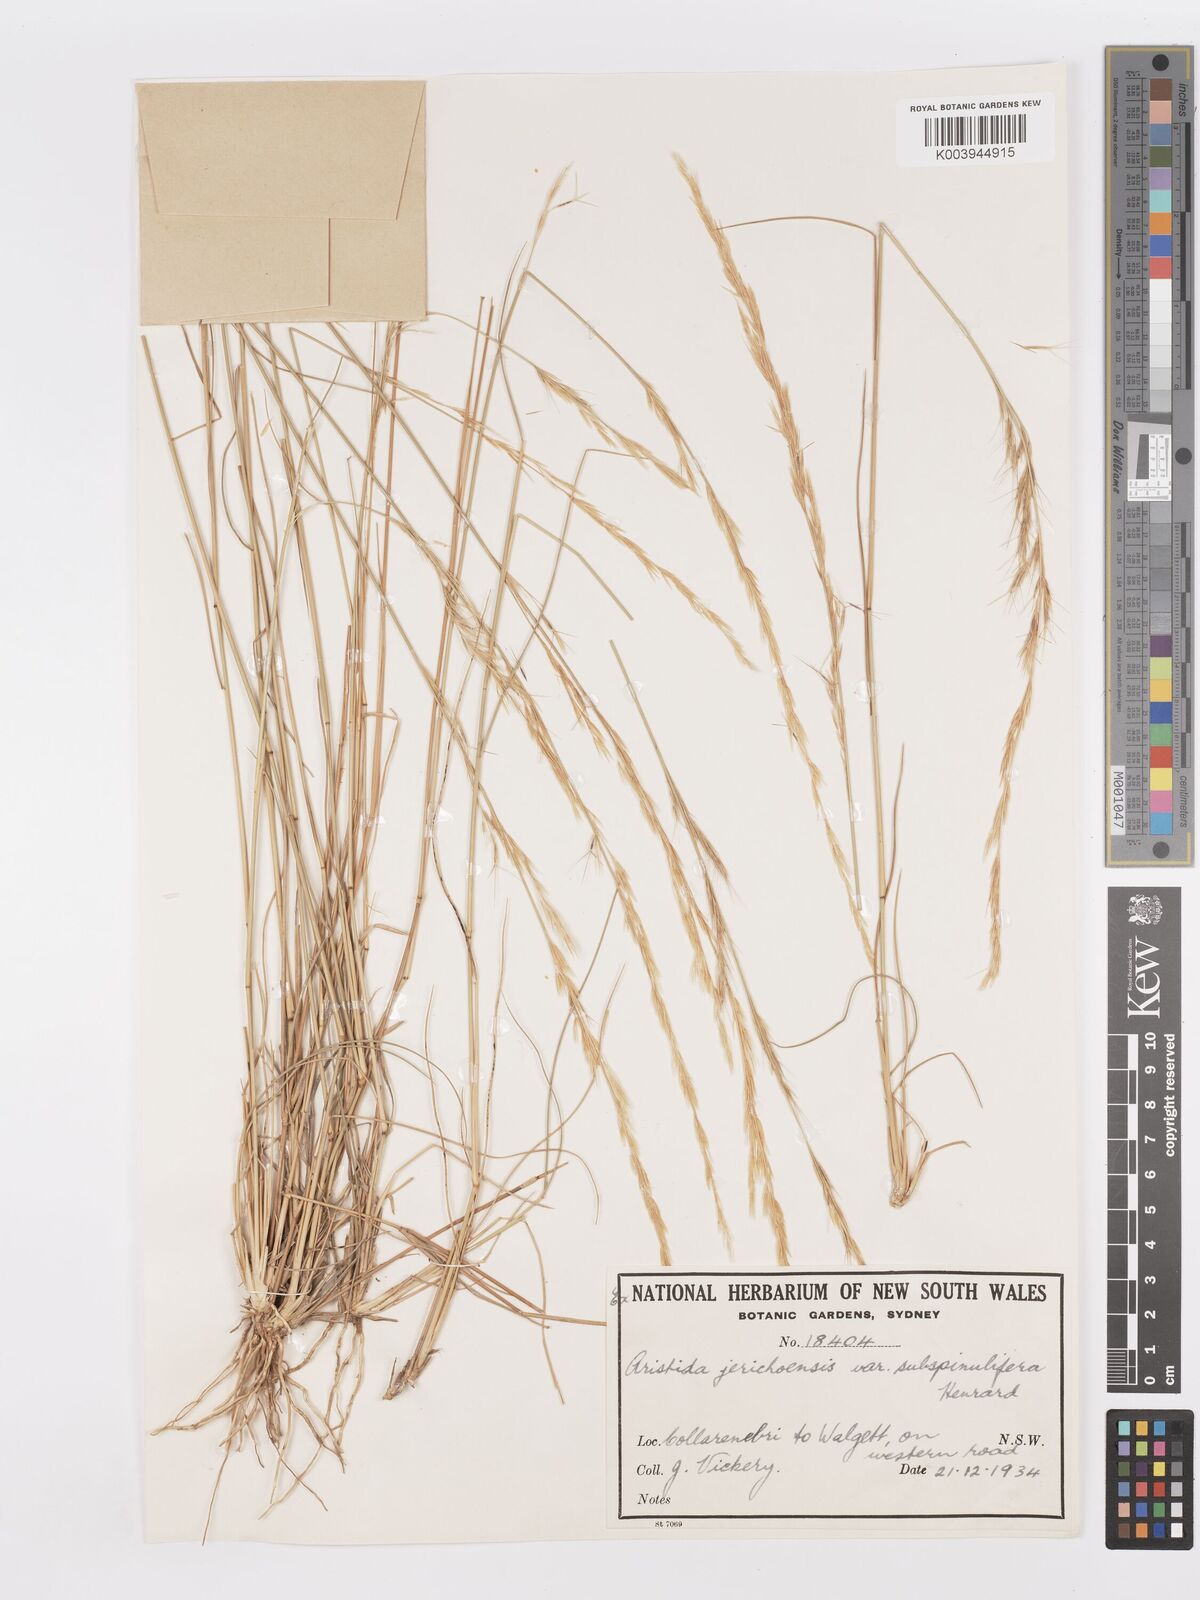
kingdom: Plantae
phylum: Tracheophyta
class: Liliopsida
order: Poales
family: Poaceae
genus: Aristida
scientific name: Aristida jerichoensis
